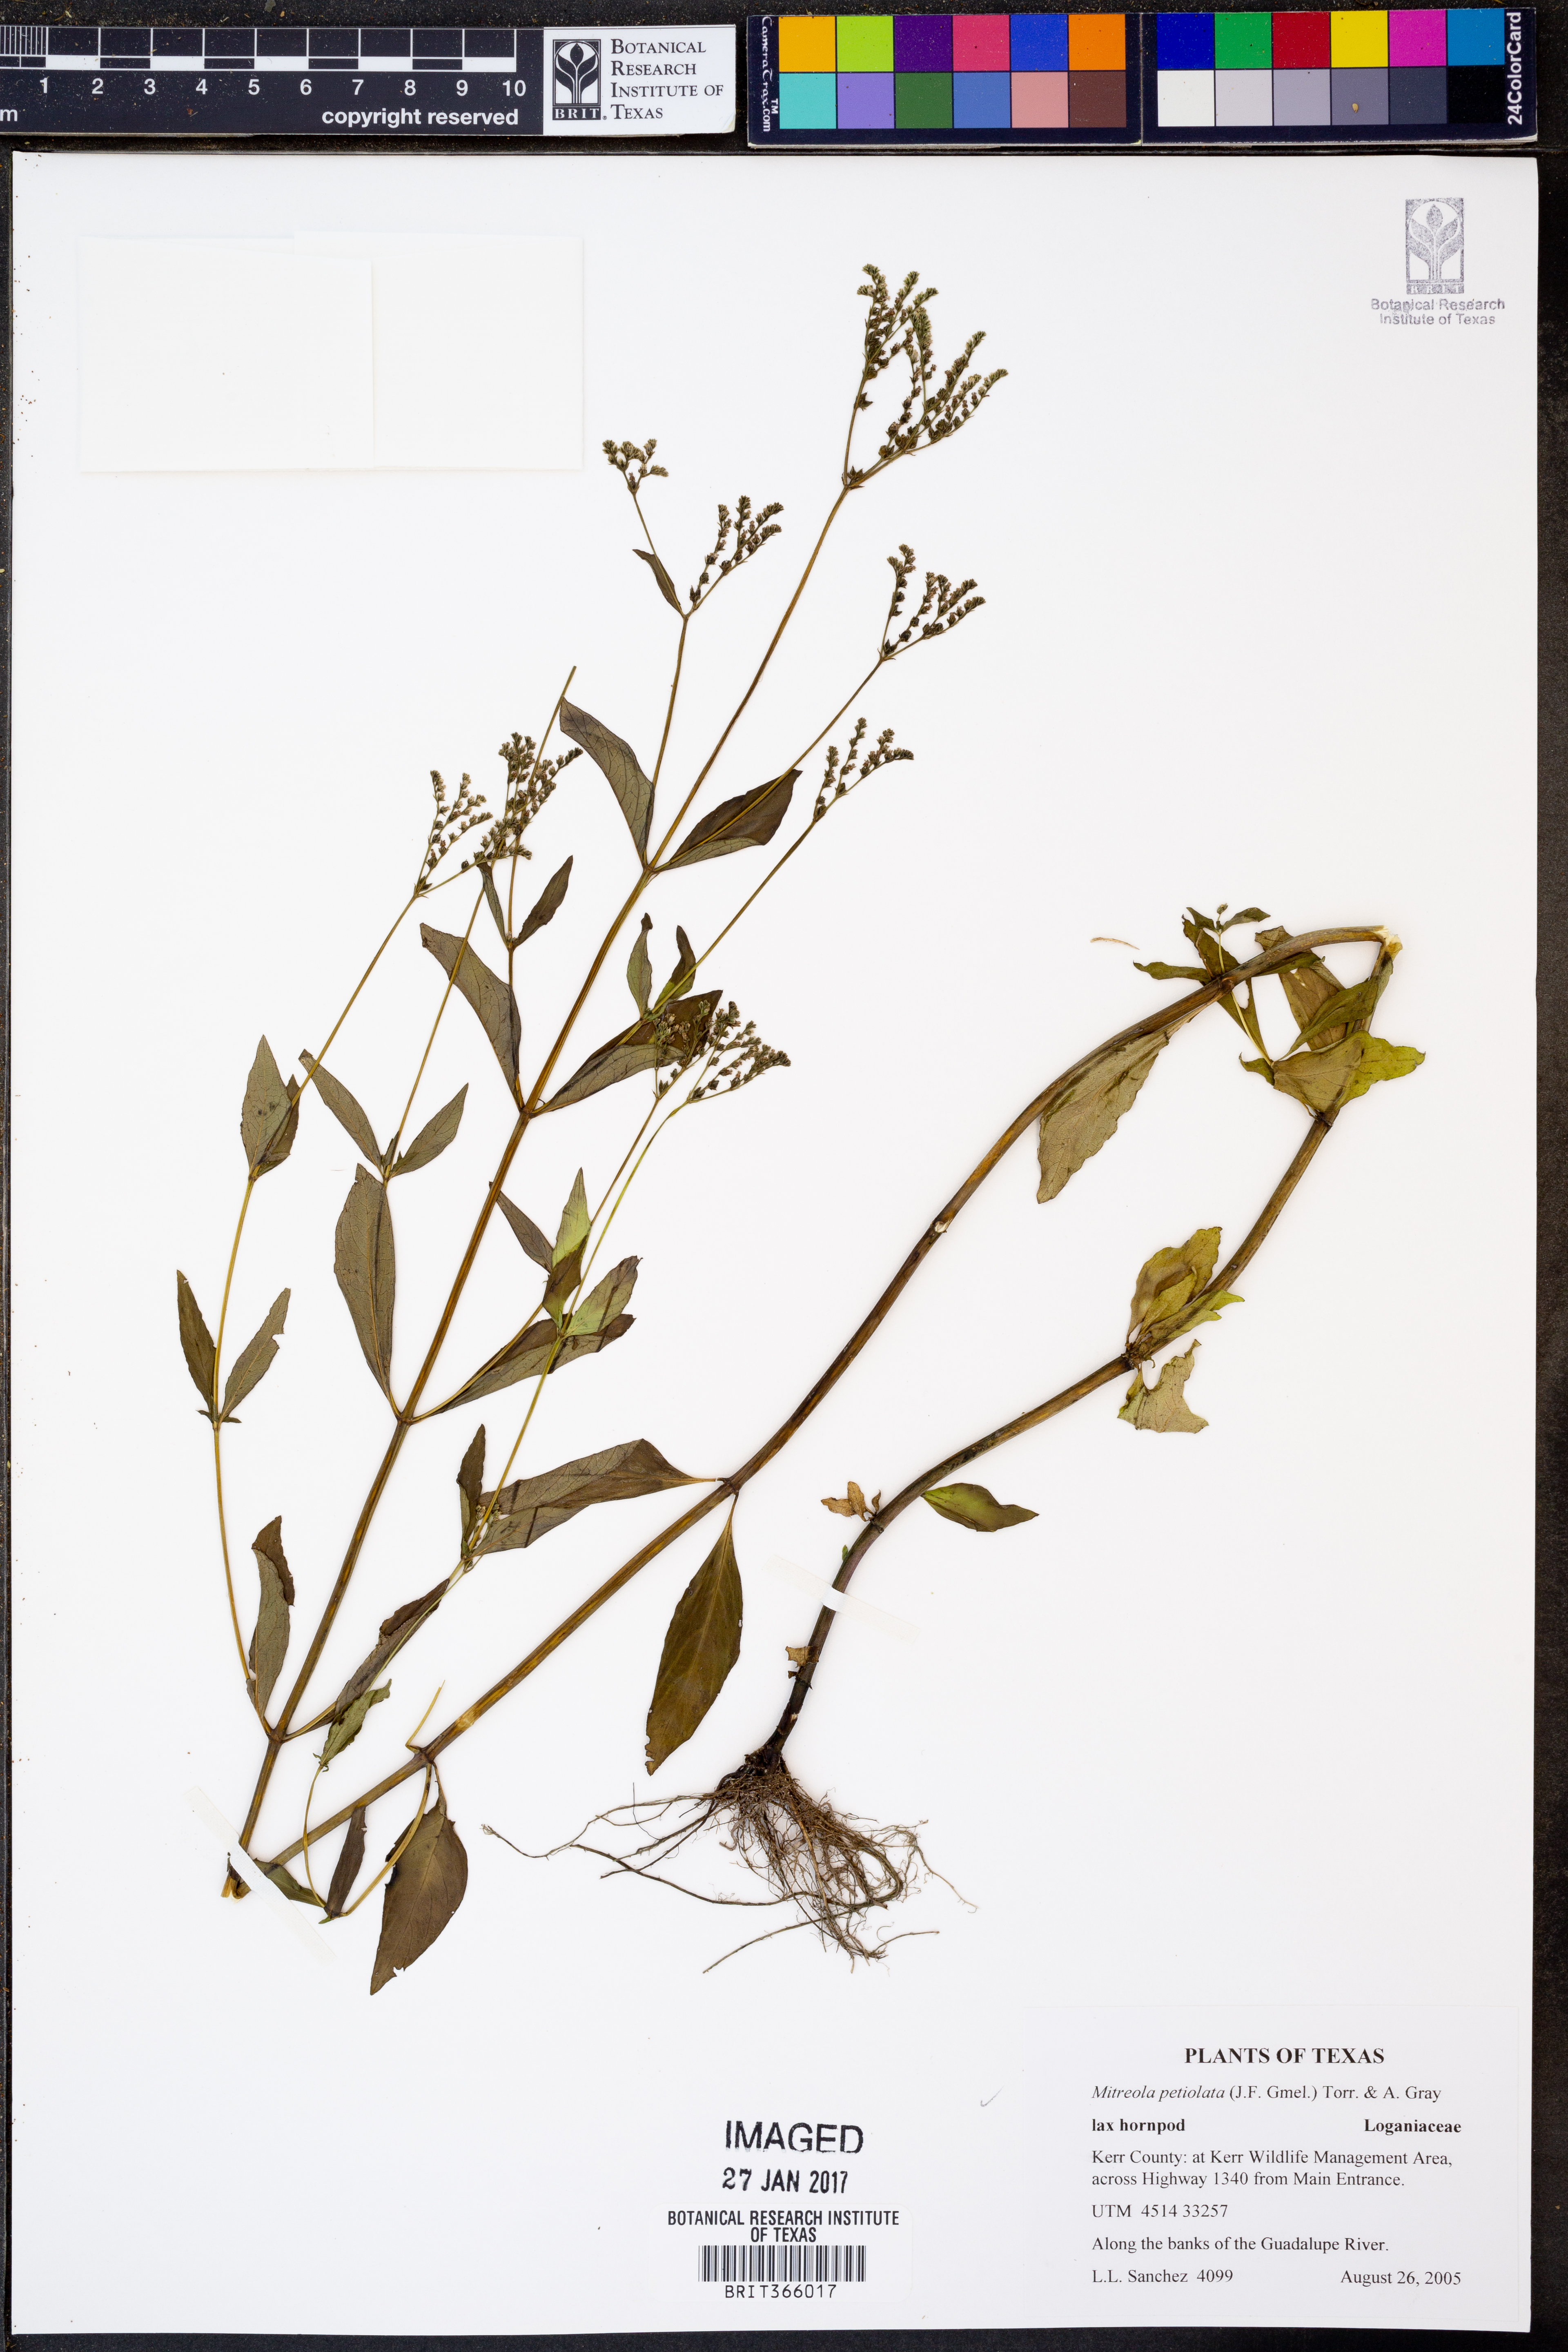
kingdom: Plantae
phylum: Tracheophyta
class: Magnoliopsida
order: Gentianales
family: Loganiaceae
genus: Mitreola
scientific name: Mitreola petiolata
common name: Lax hornpod
